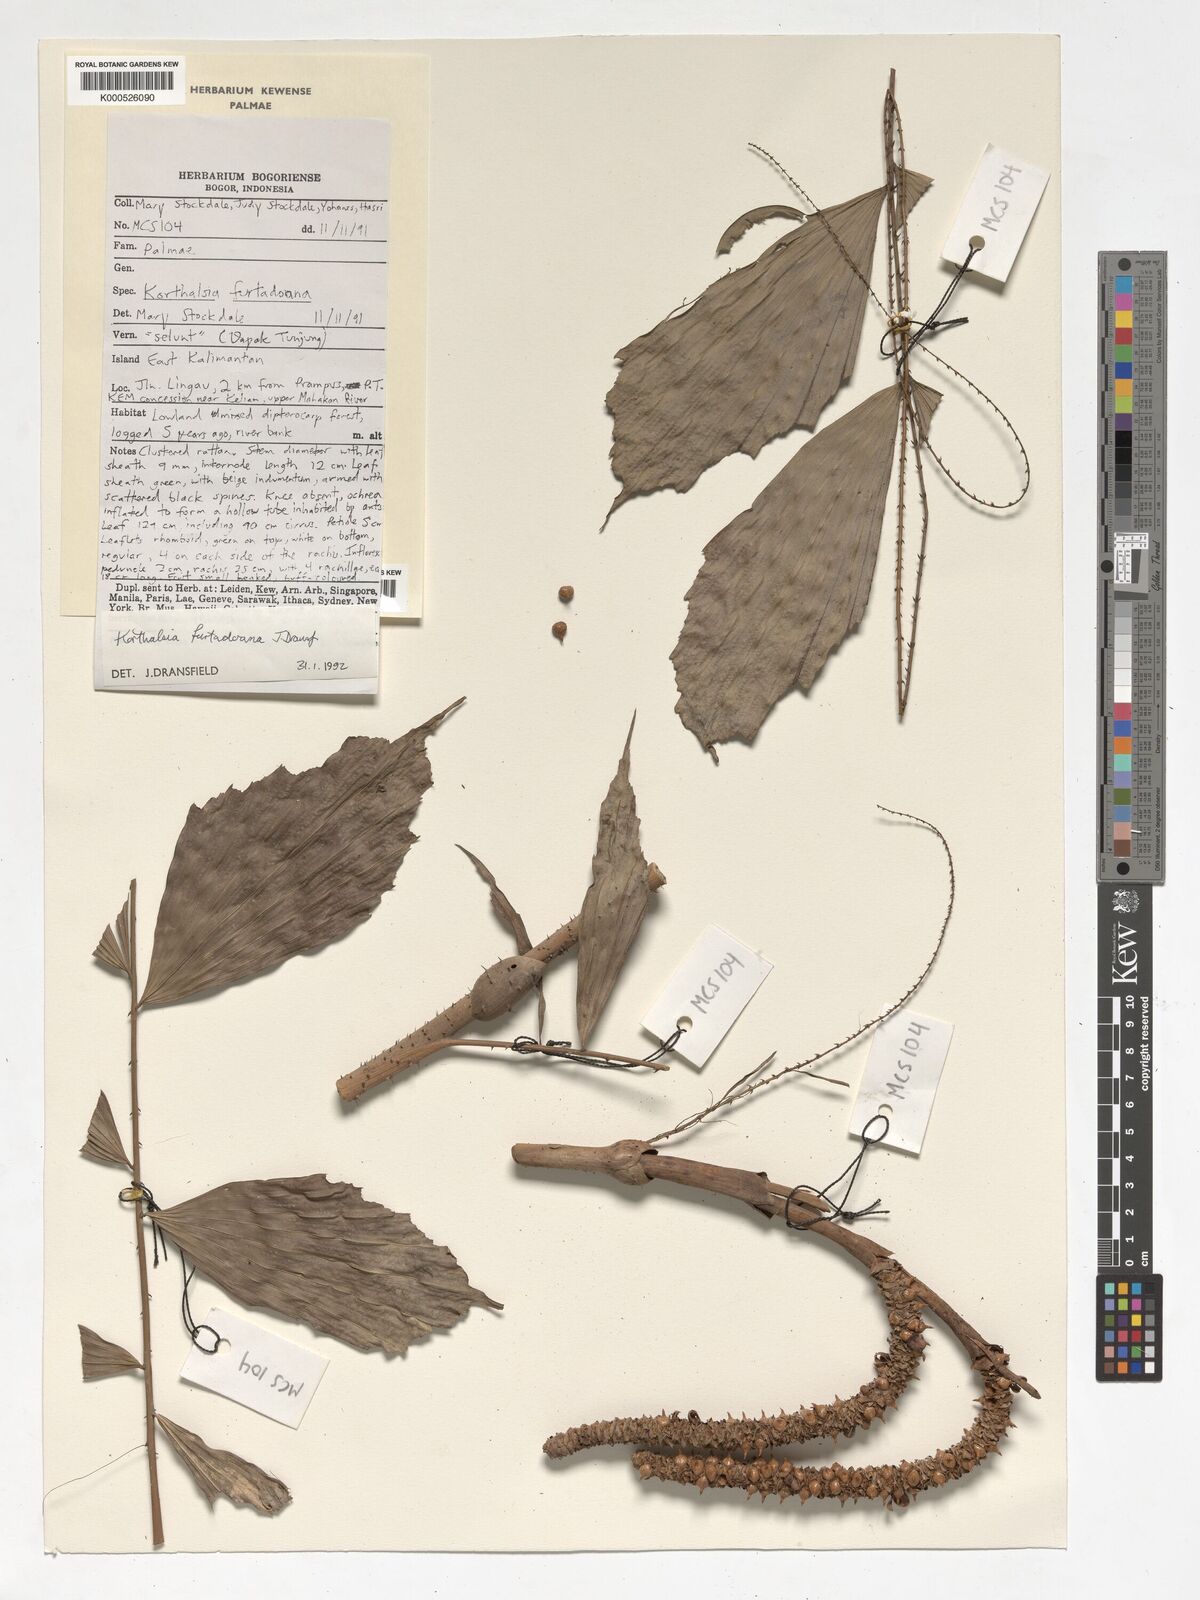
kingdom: Plantae
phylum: Tracheophyta
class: Liliopsida
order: Arecales
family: Arecaceae
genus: Korthalsia
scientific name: Korthalsia furtadoana
